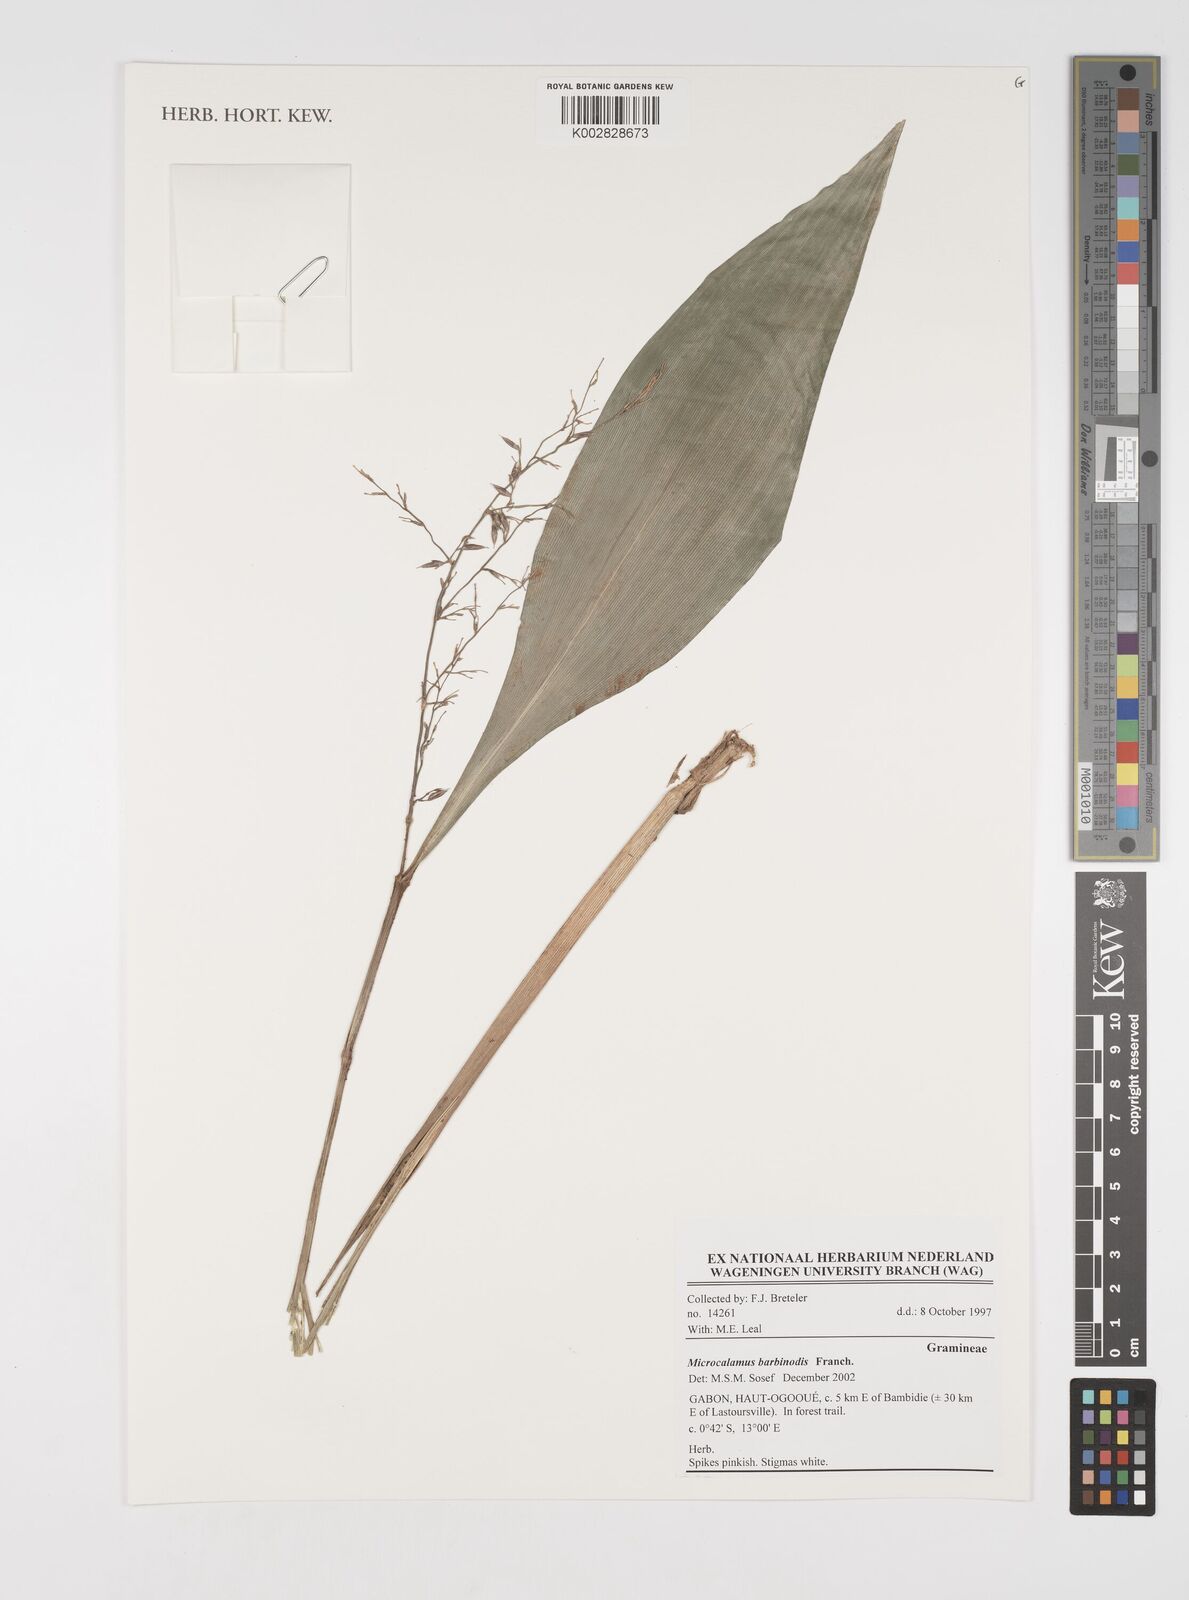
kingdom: Plantae
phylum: Tracheophyta
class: Liliopsida
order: Poales
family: Poaceae
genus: Microcalamus
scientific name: Microcalamus barbinodis
